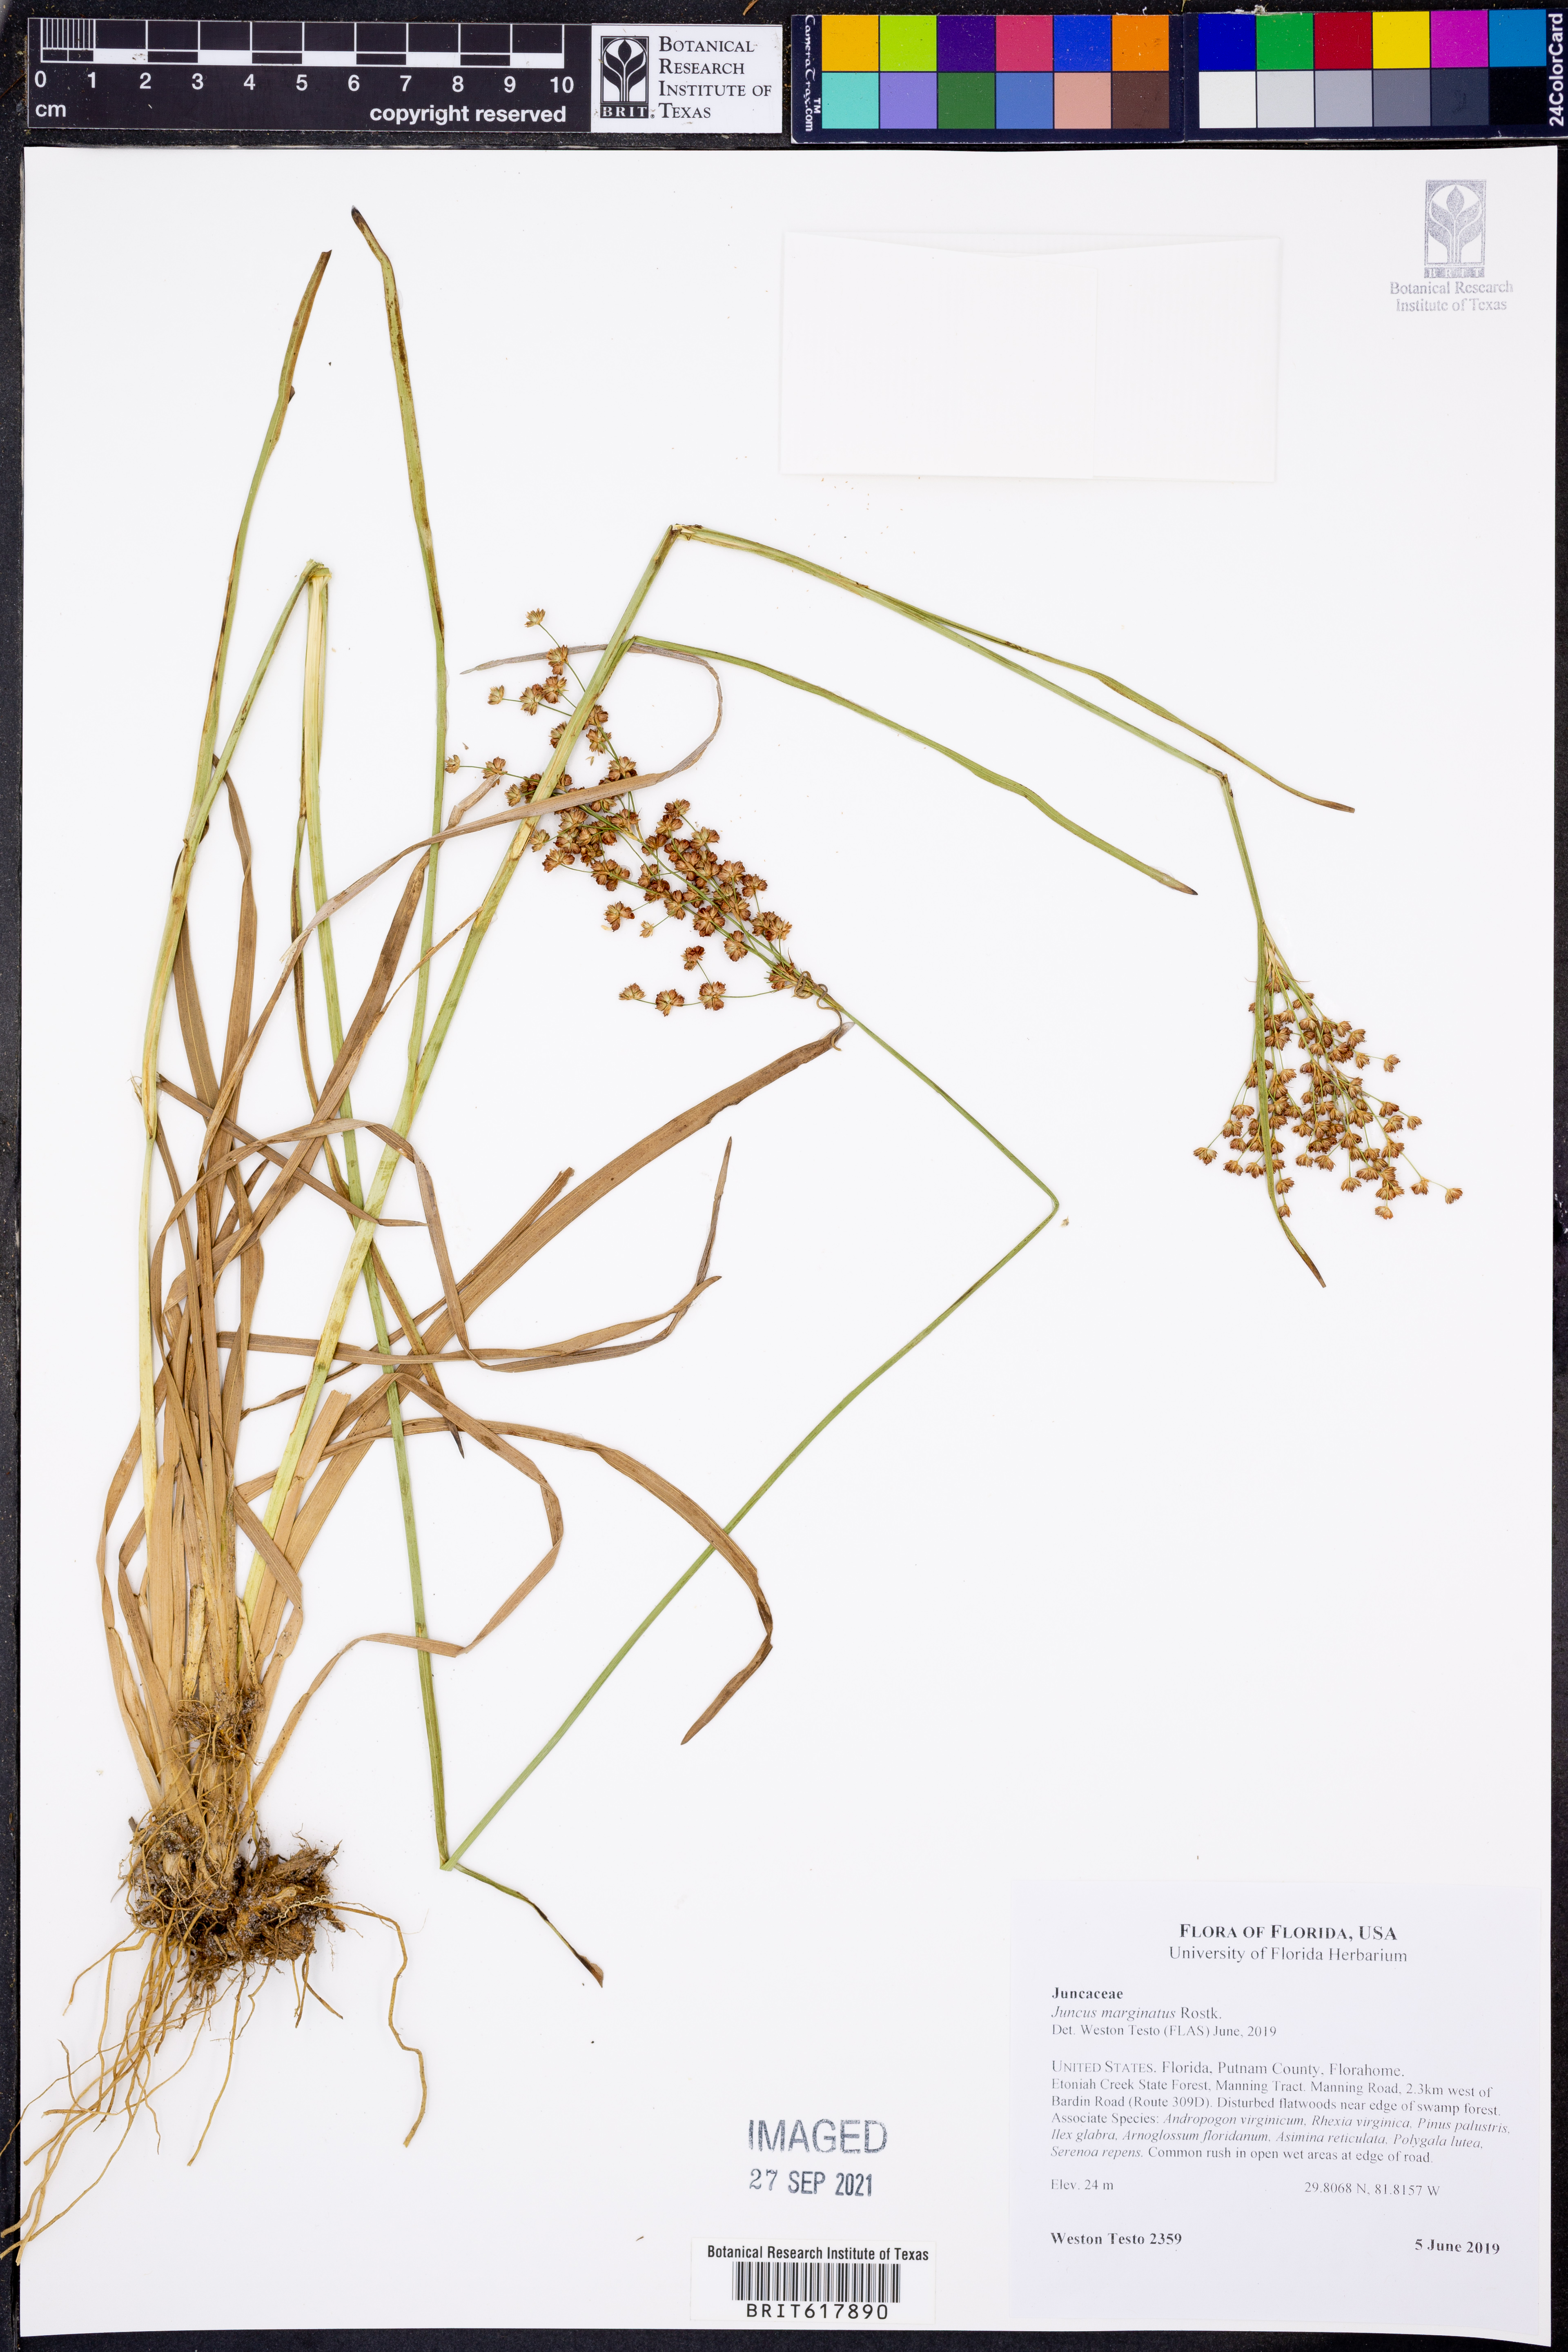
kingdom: Plantae
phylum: Tracheophyta
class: Liliopsida
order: Poales
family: Juncaceae
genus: Juncus
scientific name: Juncus marginatus
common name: Grass-leaf rush
